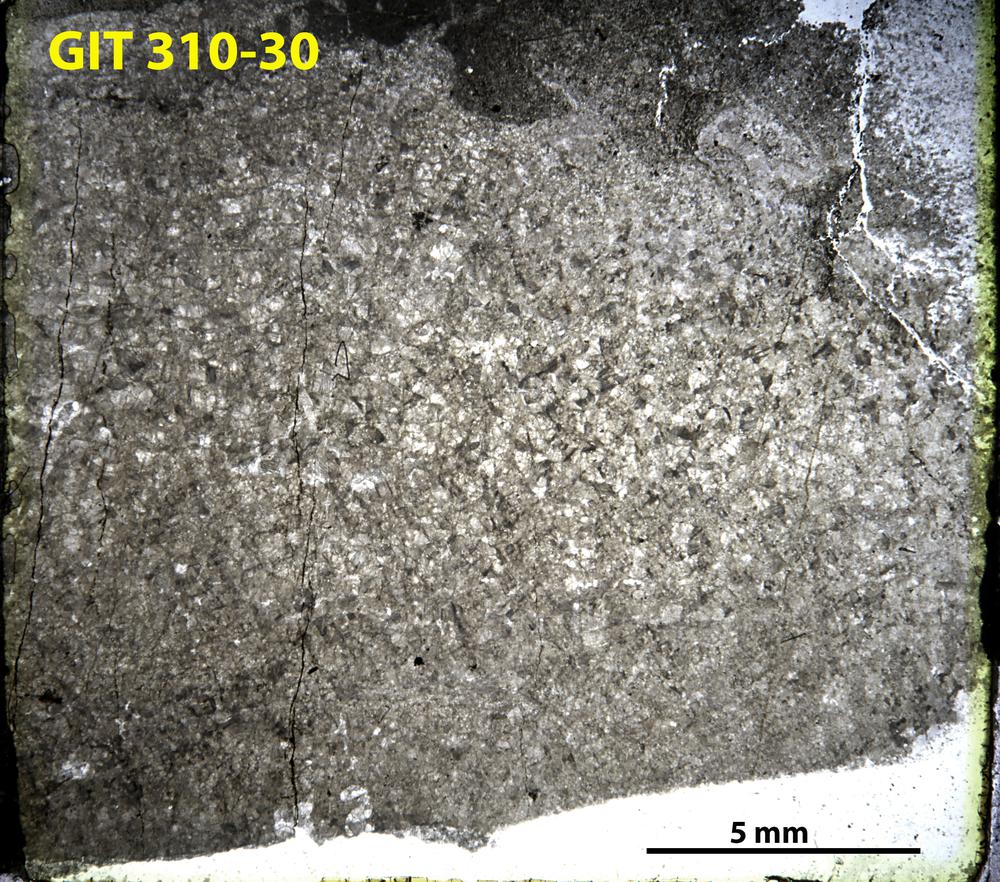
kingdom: Animalia
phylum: Porifera
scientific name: Porifera
